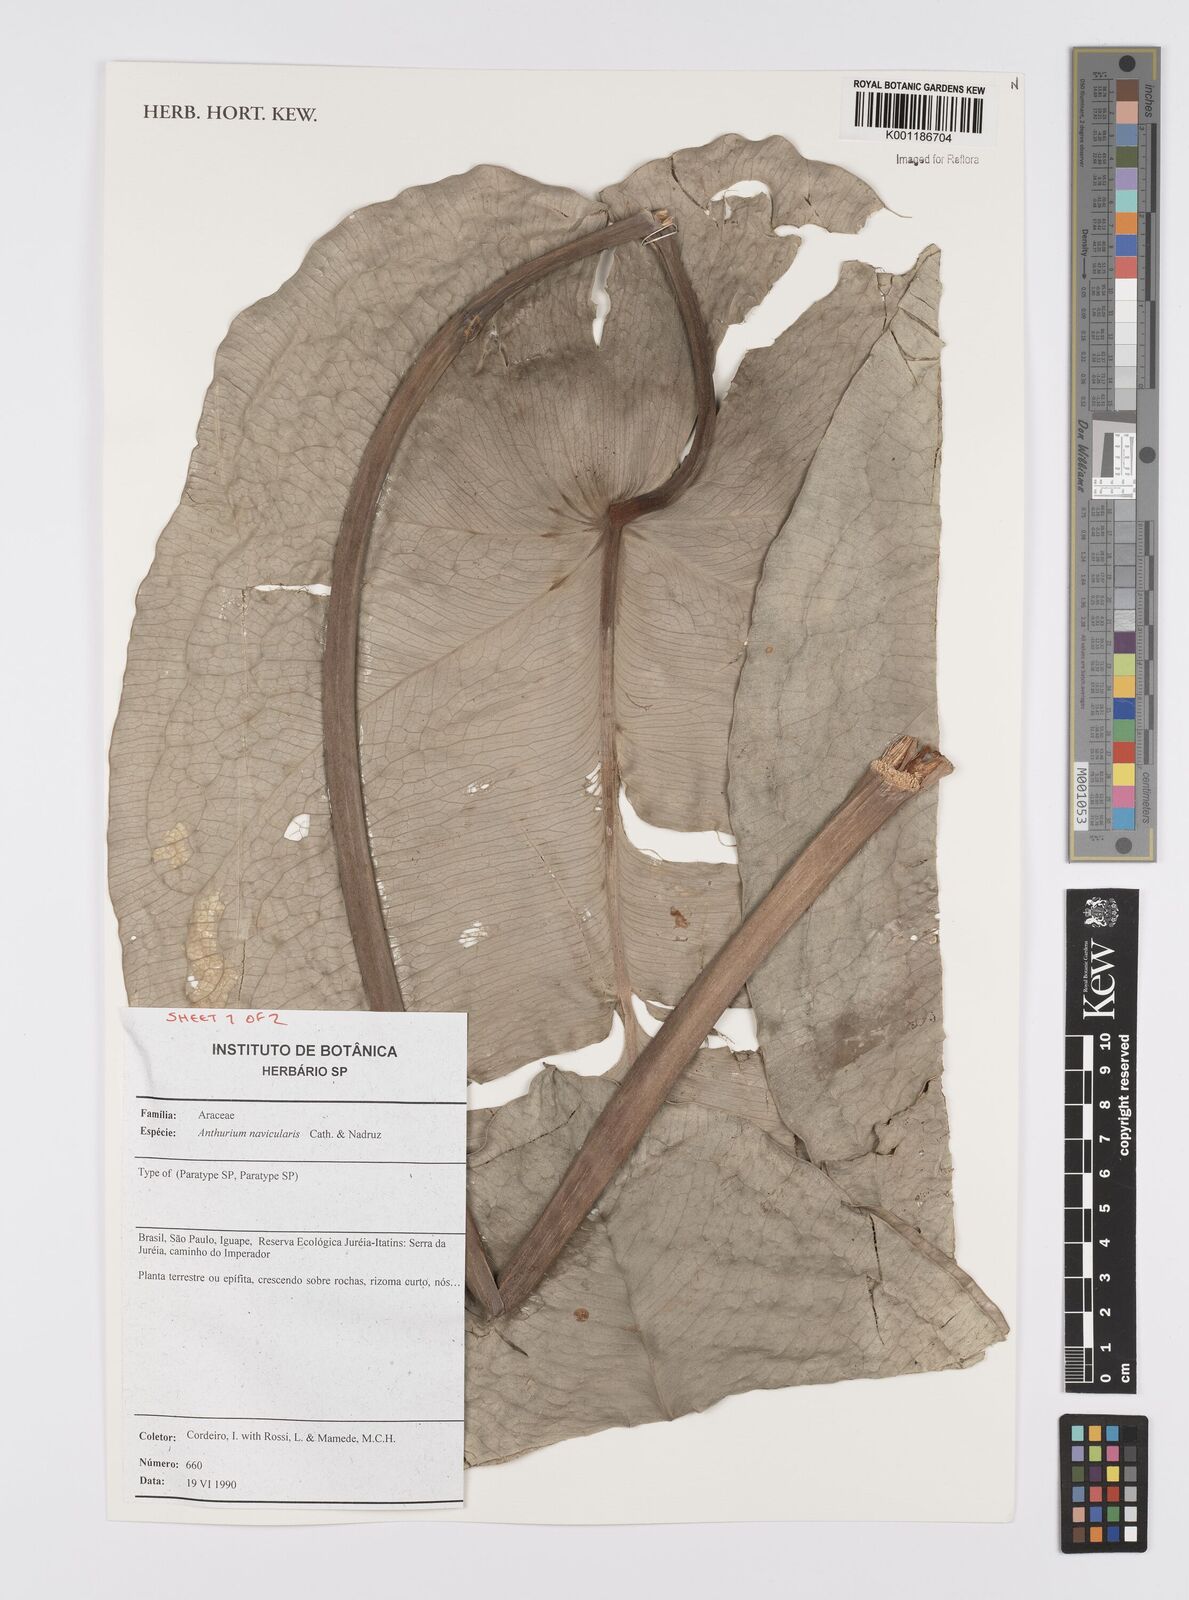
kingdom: Plantae
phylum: Tracheophyta
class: Liliopsida
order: Alismatales
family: Araceae
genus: Anthurium
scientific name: Anthurium naviculare
